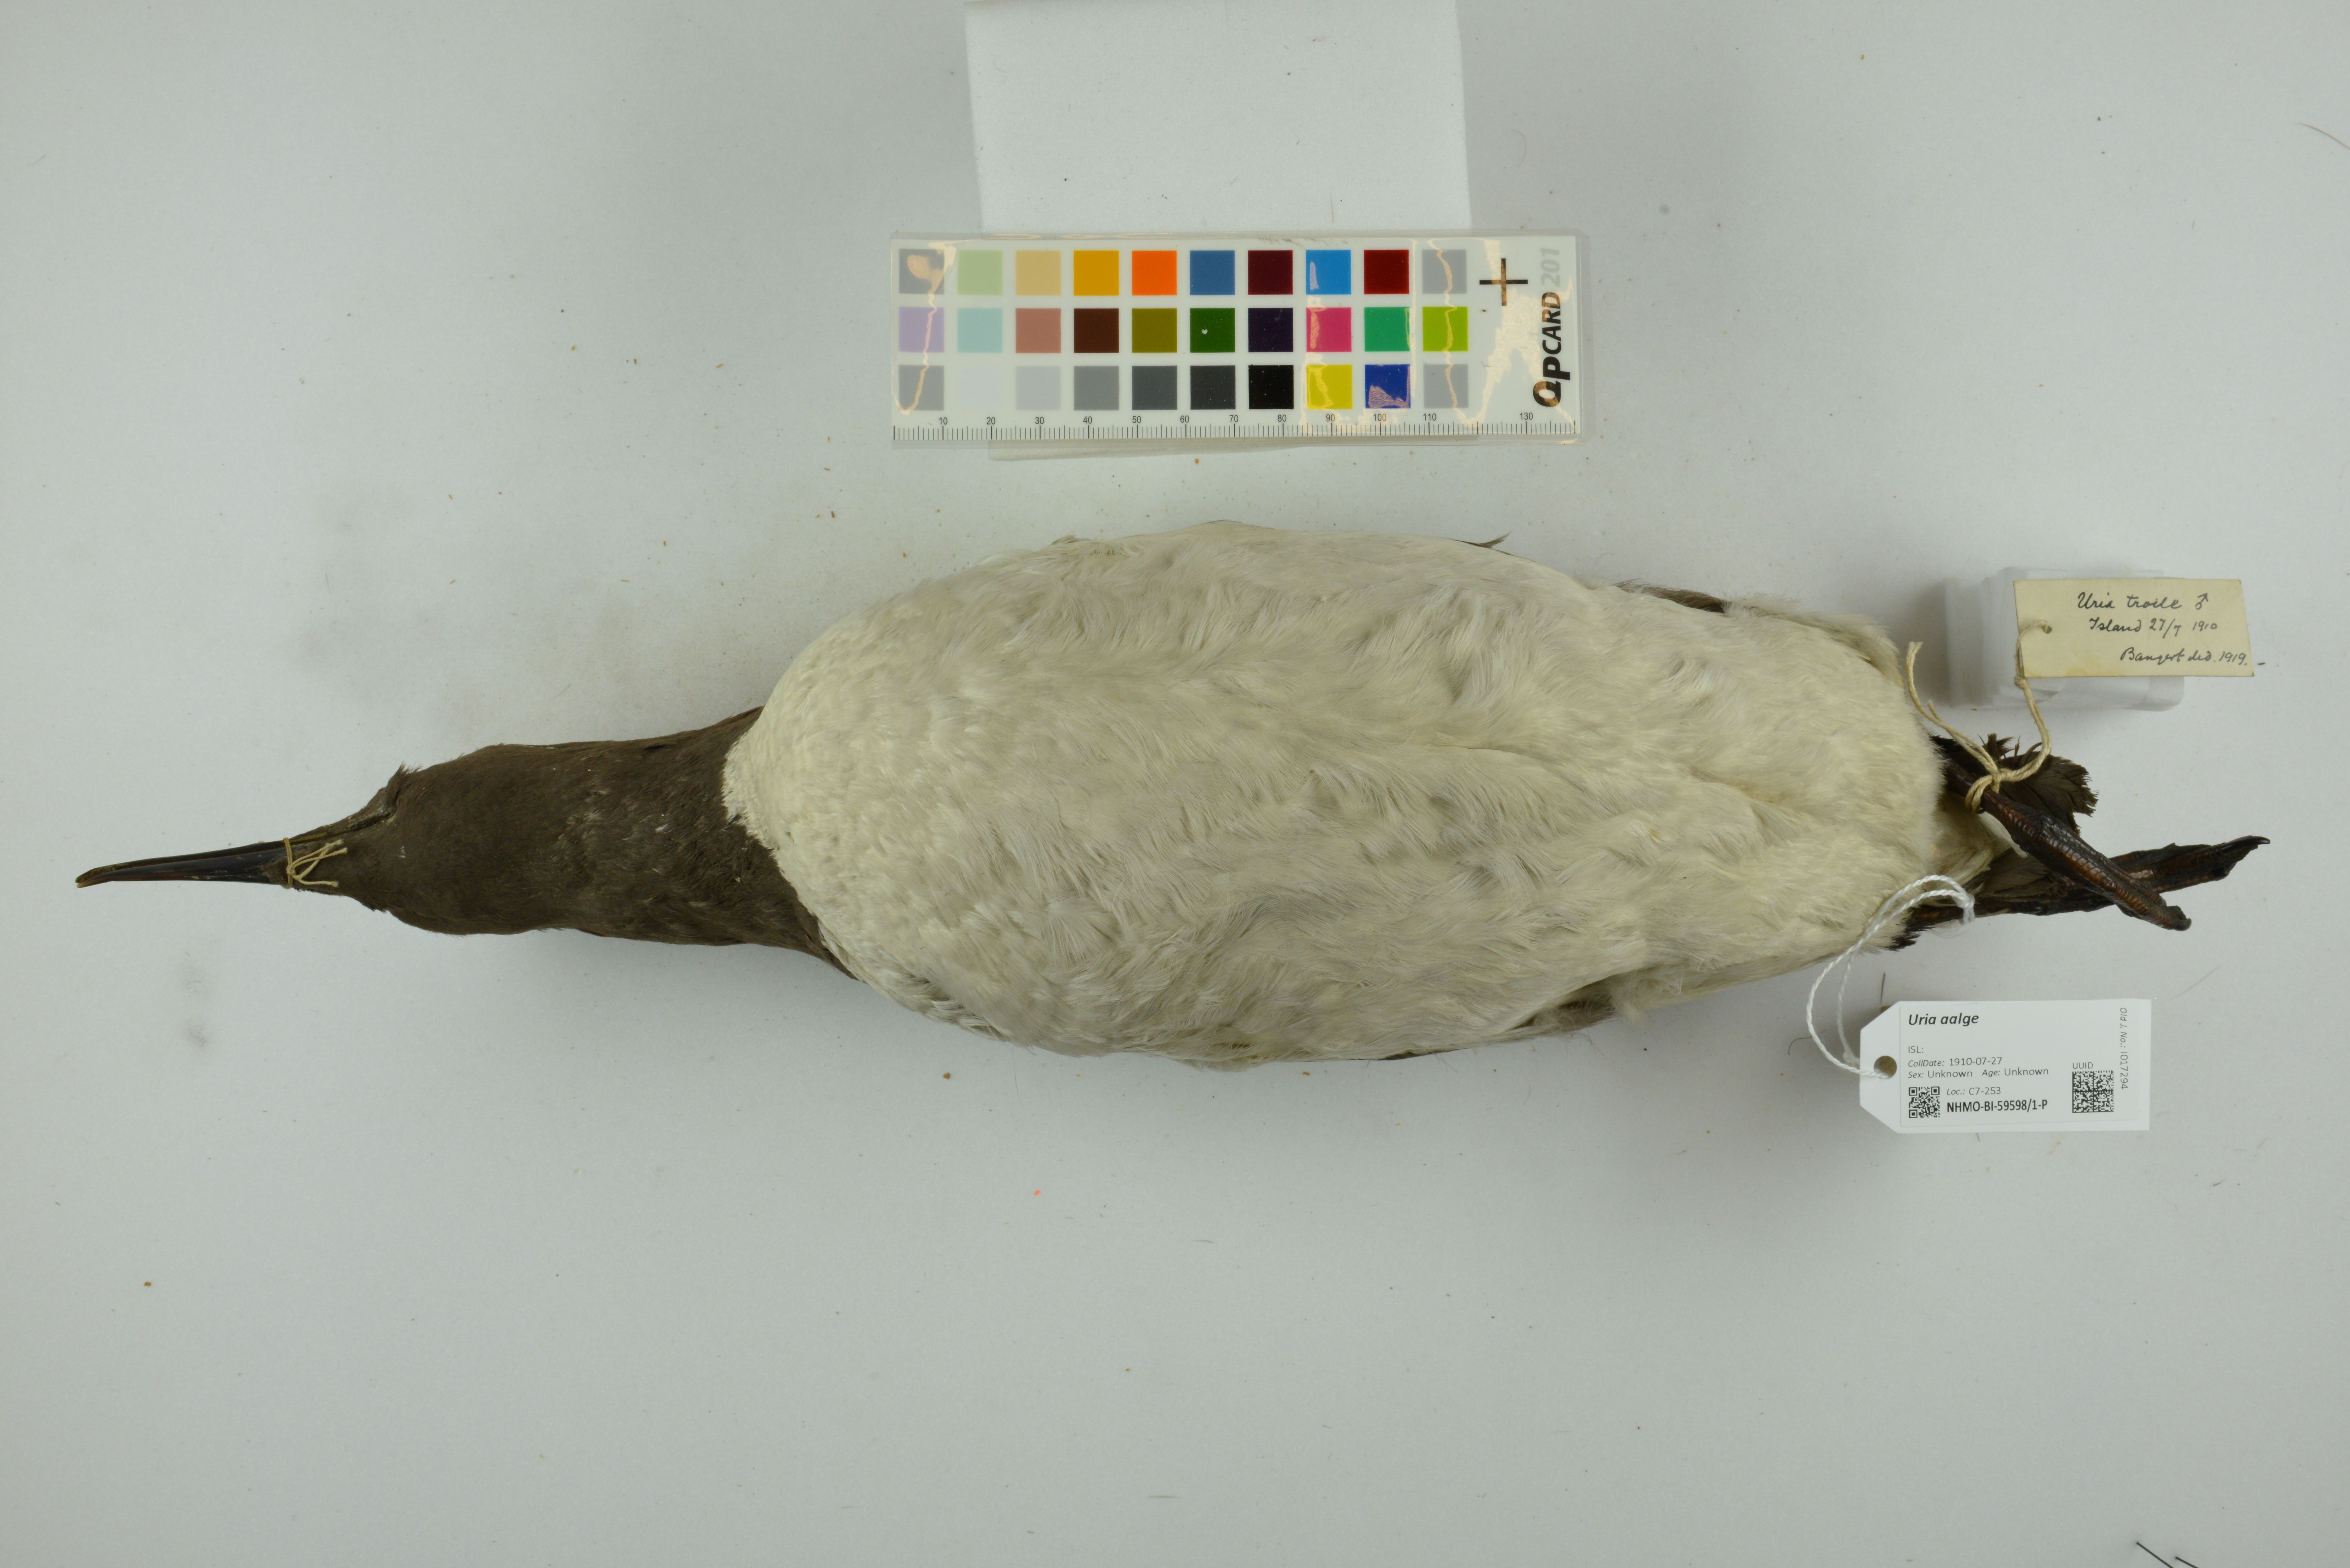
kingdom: Animalia
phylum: Chordata
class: Aves
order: Charadriiformes
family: Alcidae
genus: Uria
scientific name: Uria aalge
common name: Common murre
